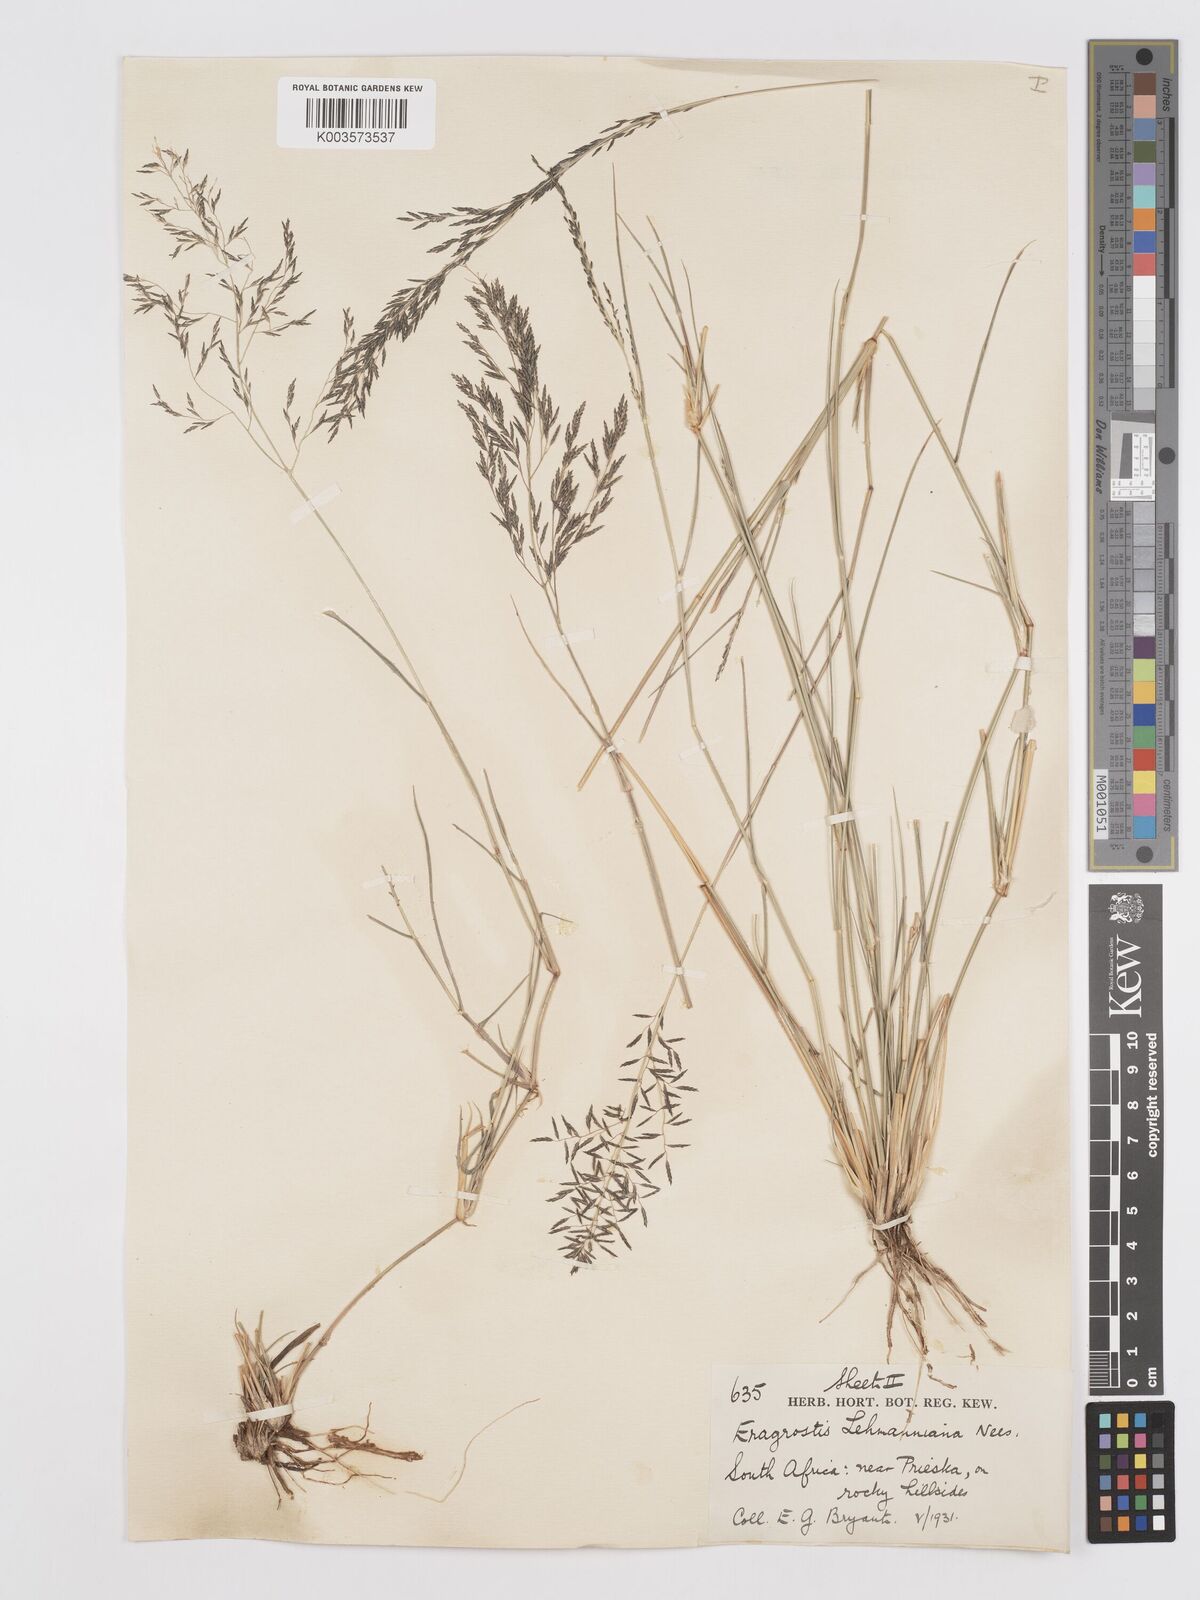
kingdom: Plantae
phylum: Tracheophyta
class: Liliopsida
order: Poales
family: Poaceae
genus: Eragrostis
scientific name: Eragrostis lehmanniana
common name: Lehmann lovegrass
